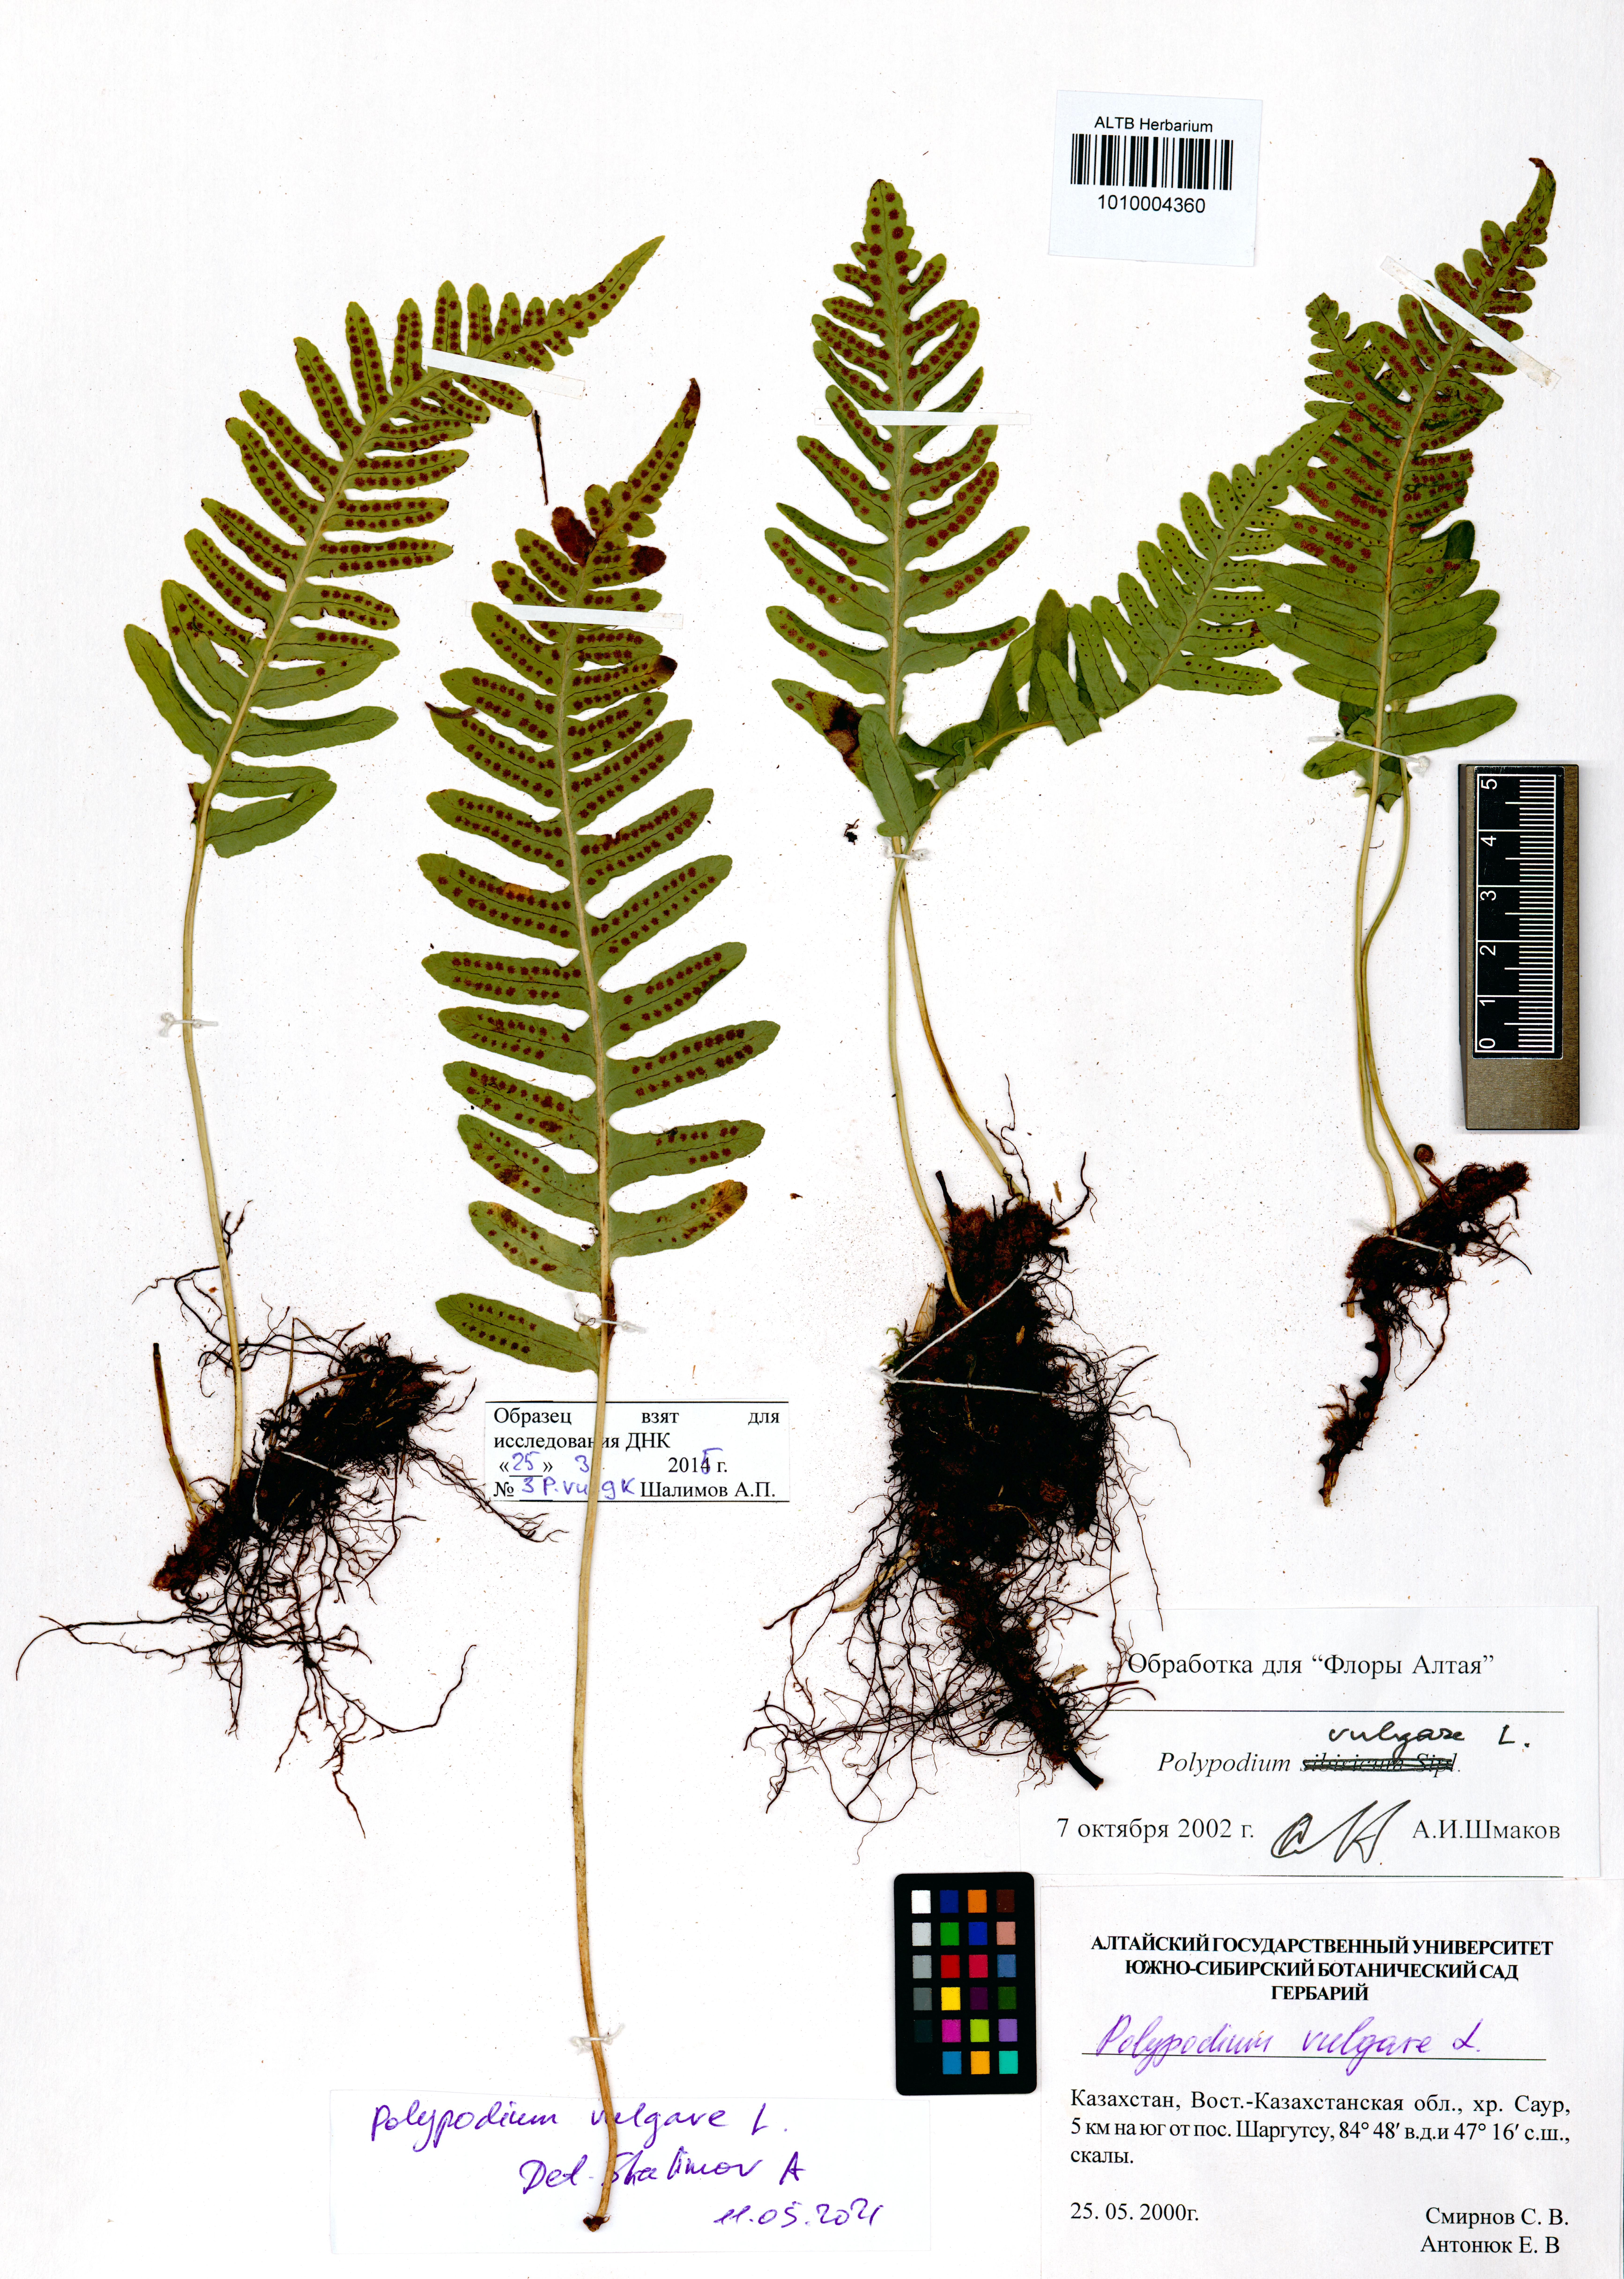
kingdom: Plantae
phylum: Tracheophyta
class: Polypodiopsida
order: Polypodiales
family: Polypodiaceae
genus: Polypodium
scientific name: Polypodium vulgare
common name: Common polypody
